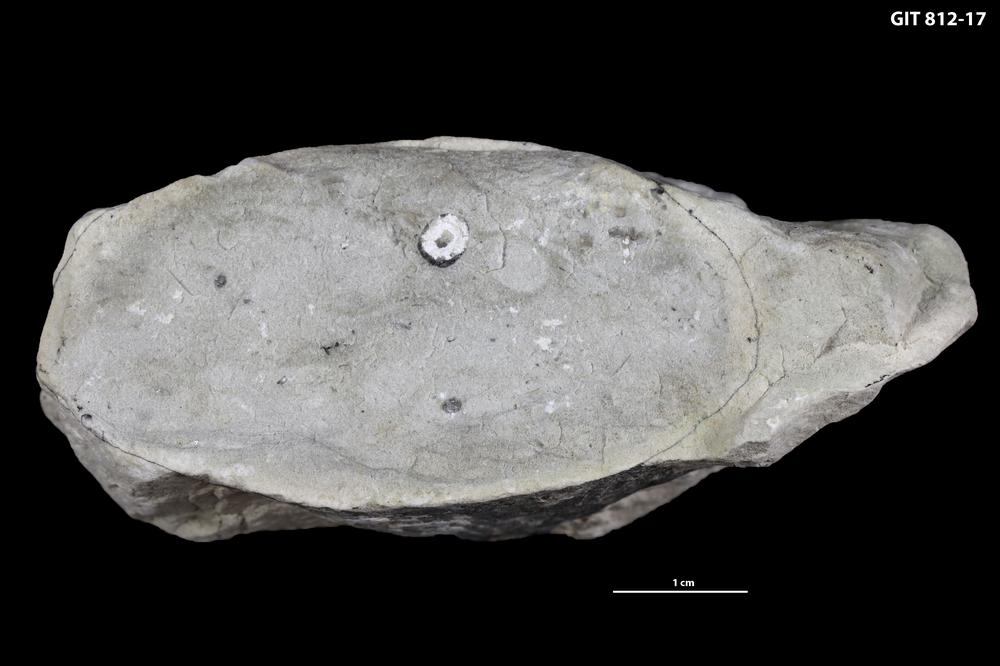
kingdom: Animalia
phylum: Mollusca
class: Cephalopoda
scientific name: Cephalopoda
